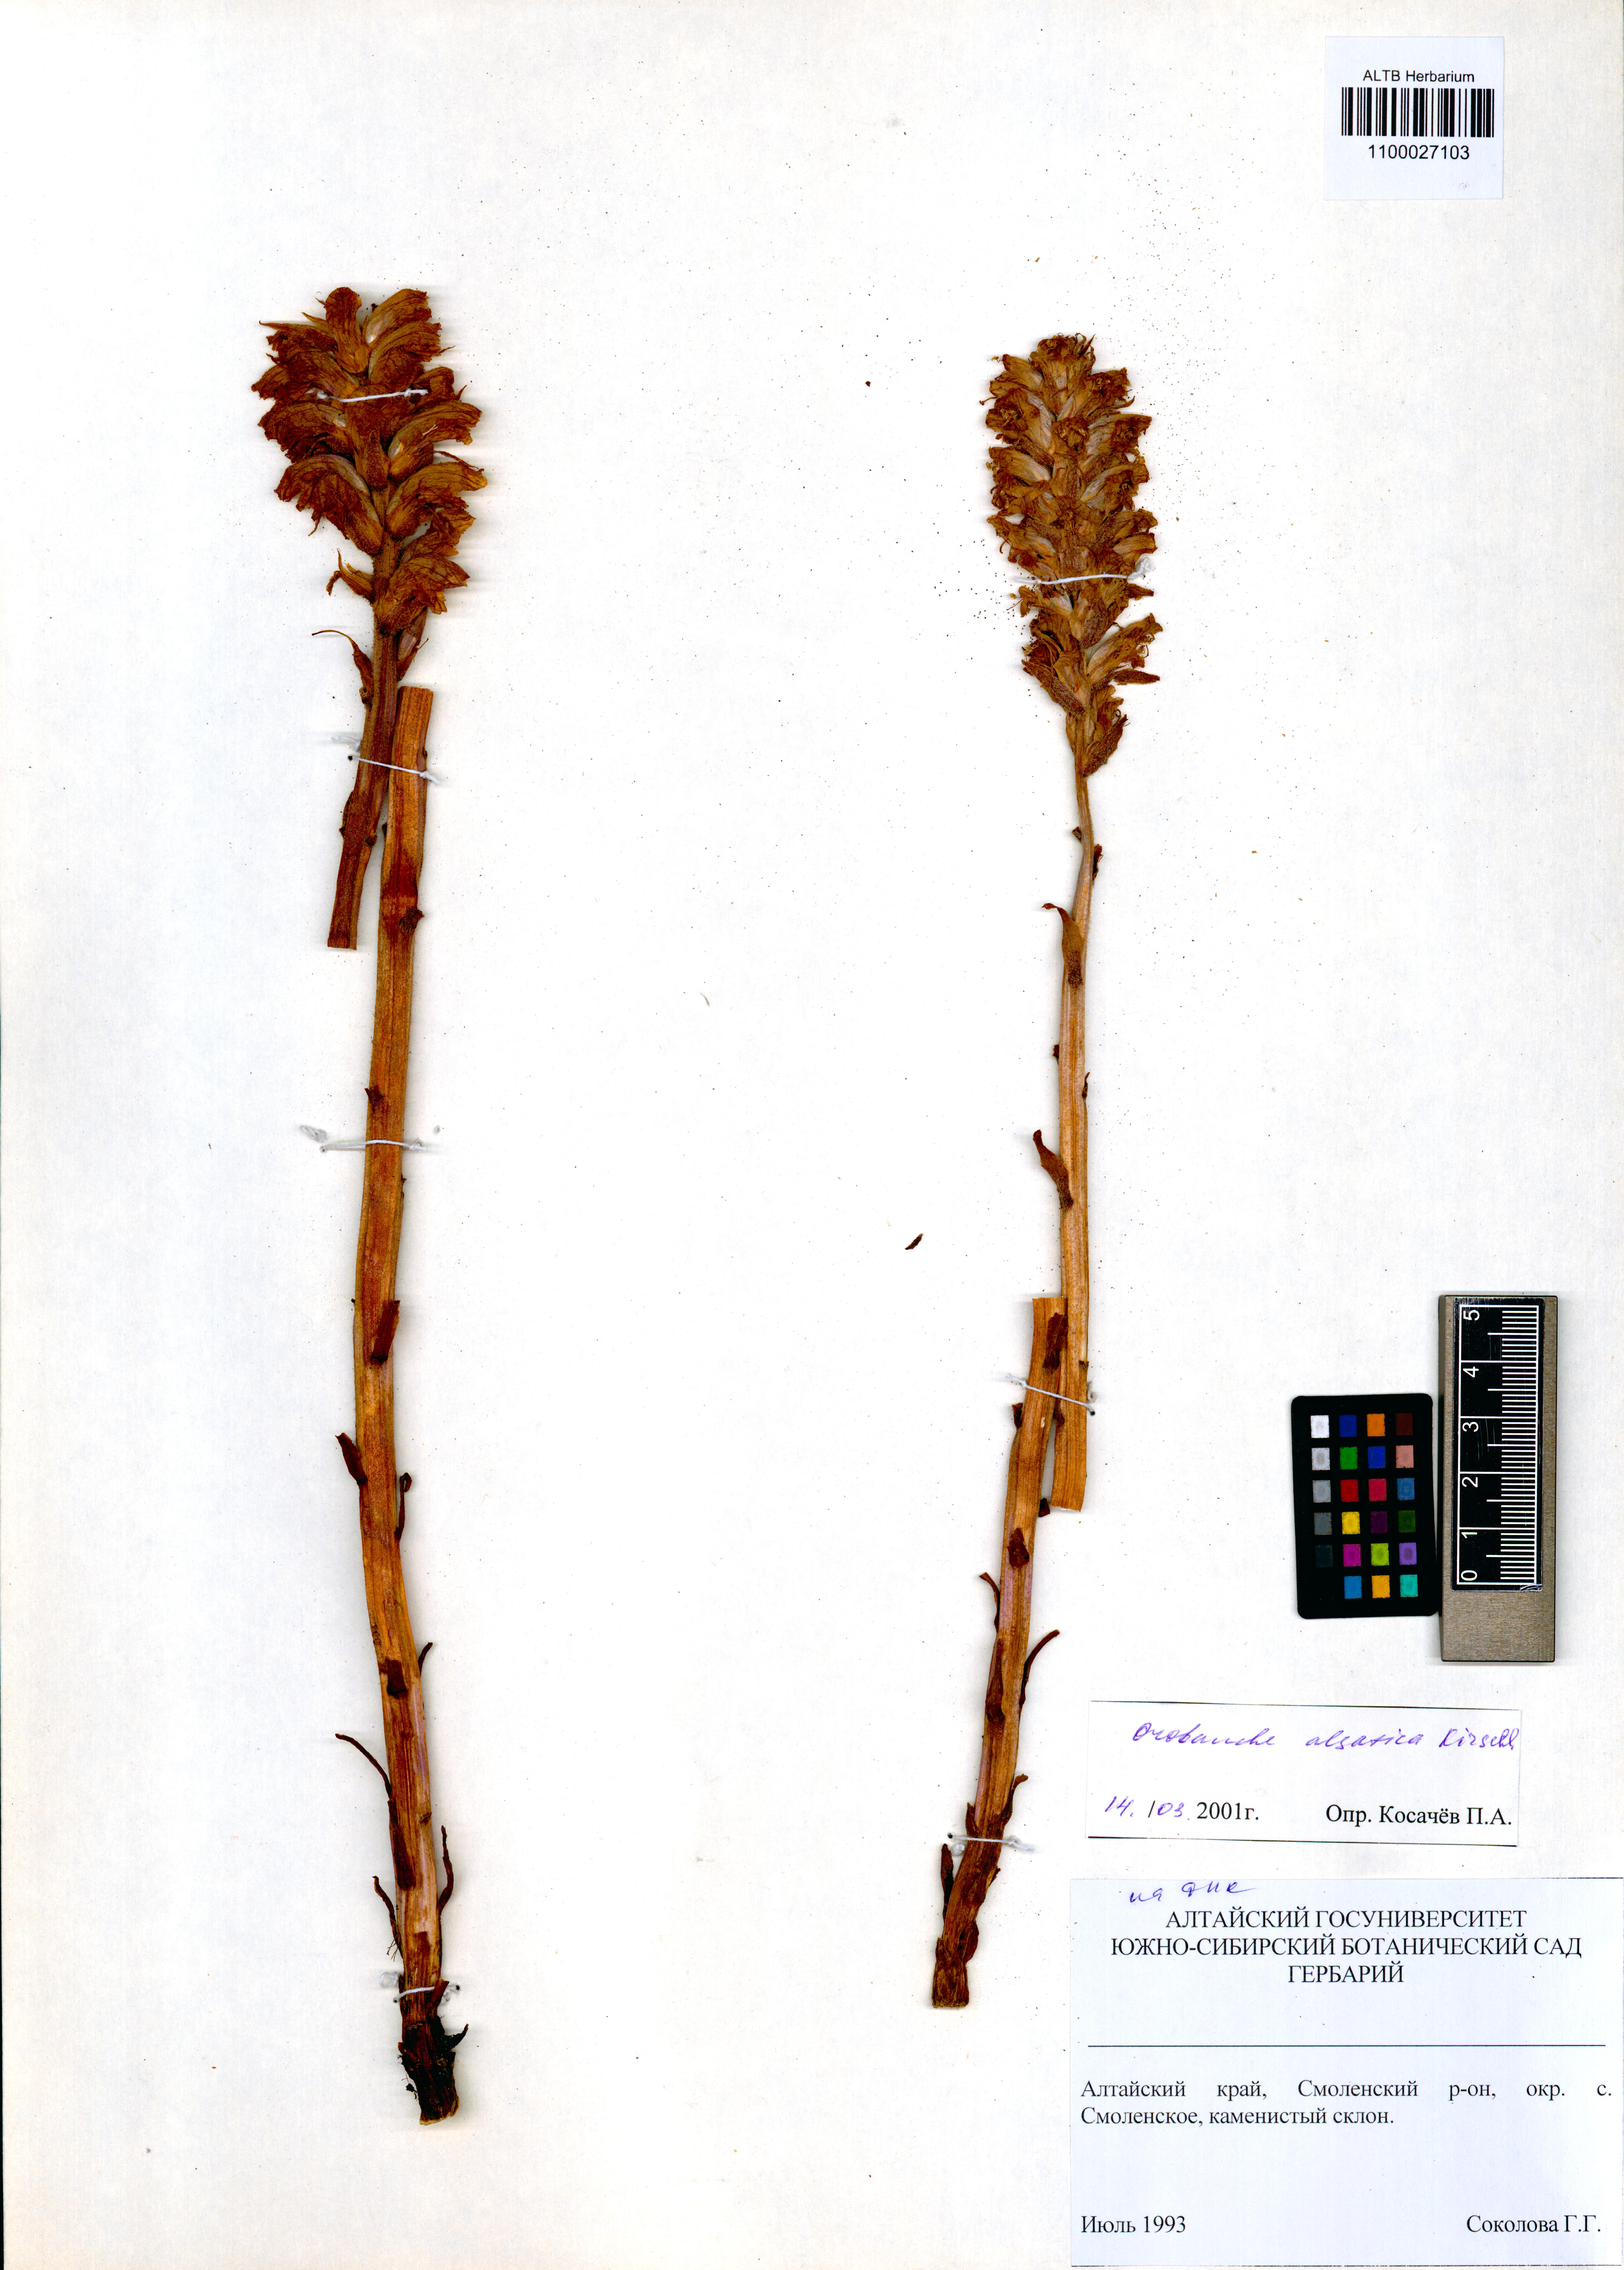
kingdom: Plantae
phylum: Tracheophyta
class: Magnoliopsida
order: Lamiales
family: Orobanchaceae
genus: Orobanche
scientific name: Orobanche alsatica
